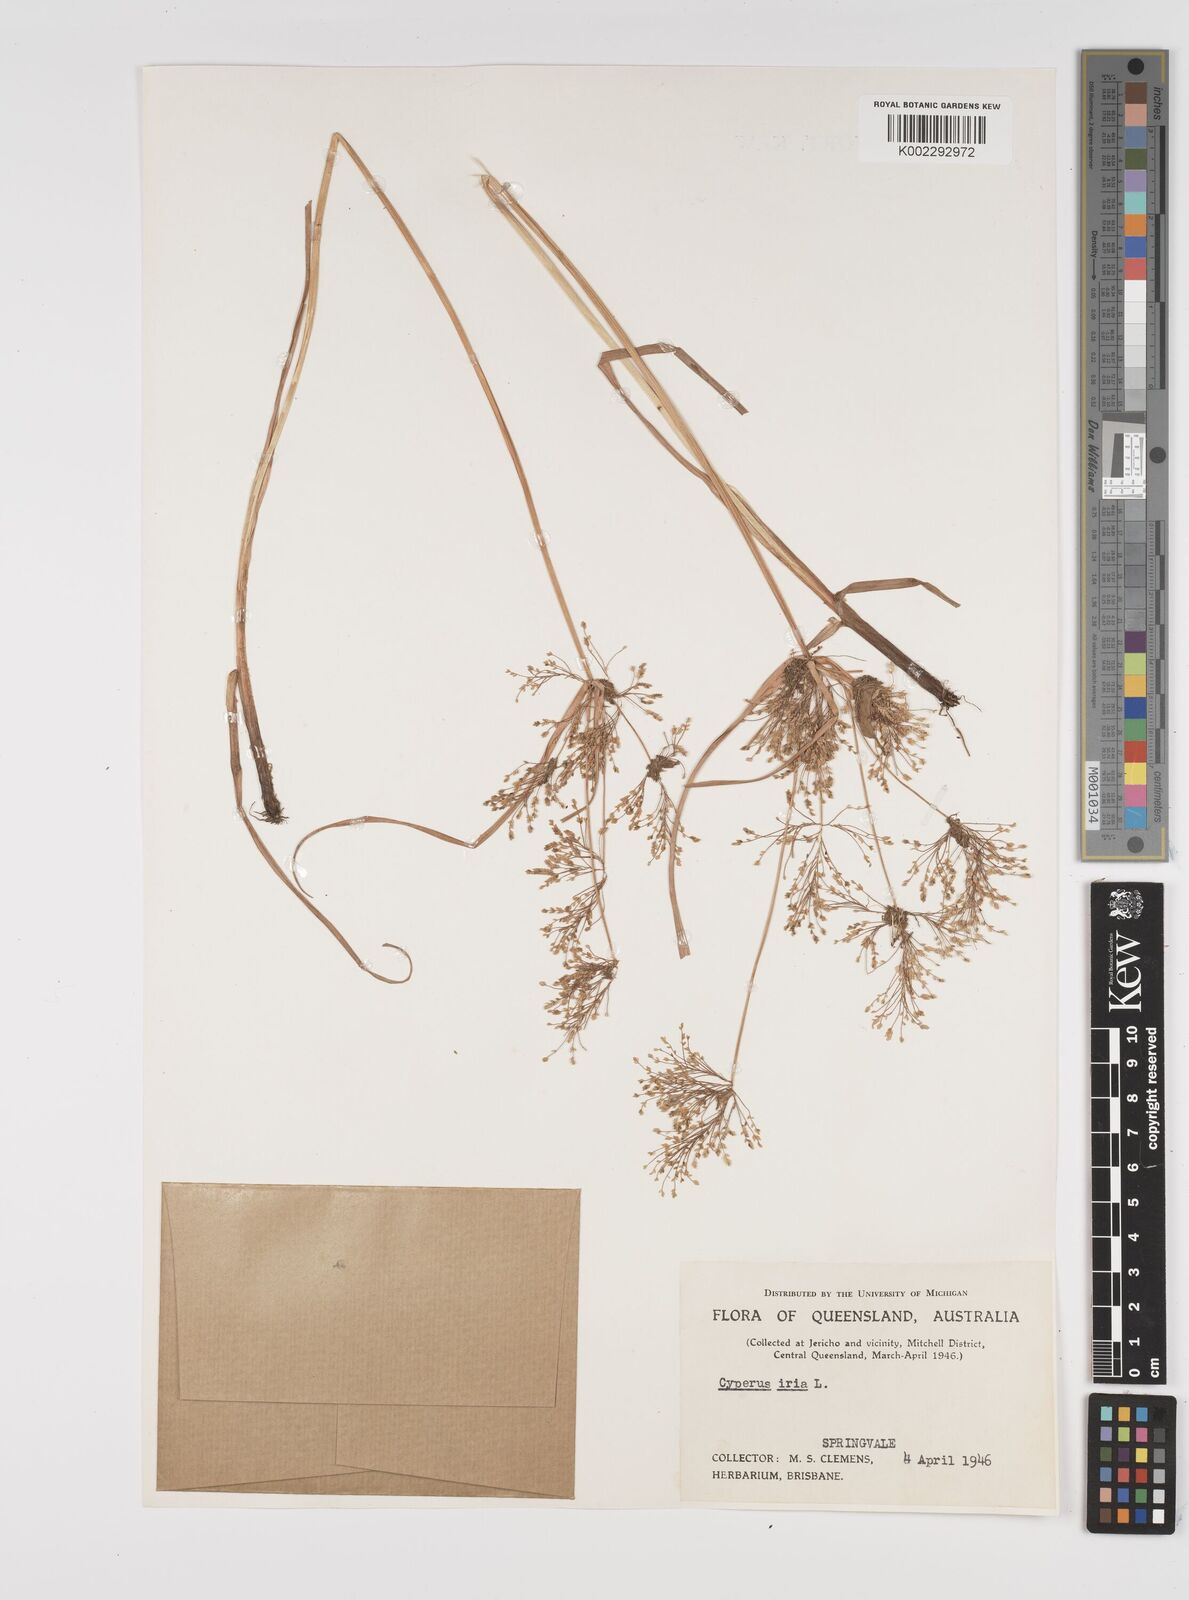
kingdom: Plantae
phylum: Tracheophyta
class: Liliopsida
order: Poales
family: Cyperaceae
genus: Cyperus
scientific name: Cyperus iria
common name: Ricefield flatsedge
